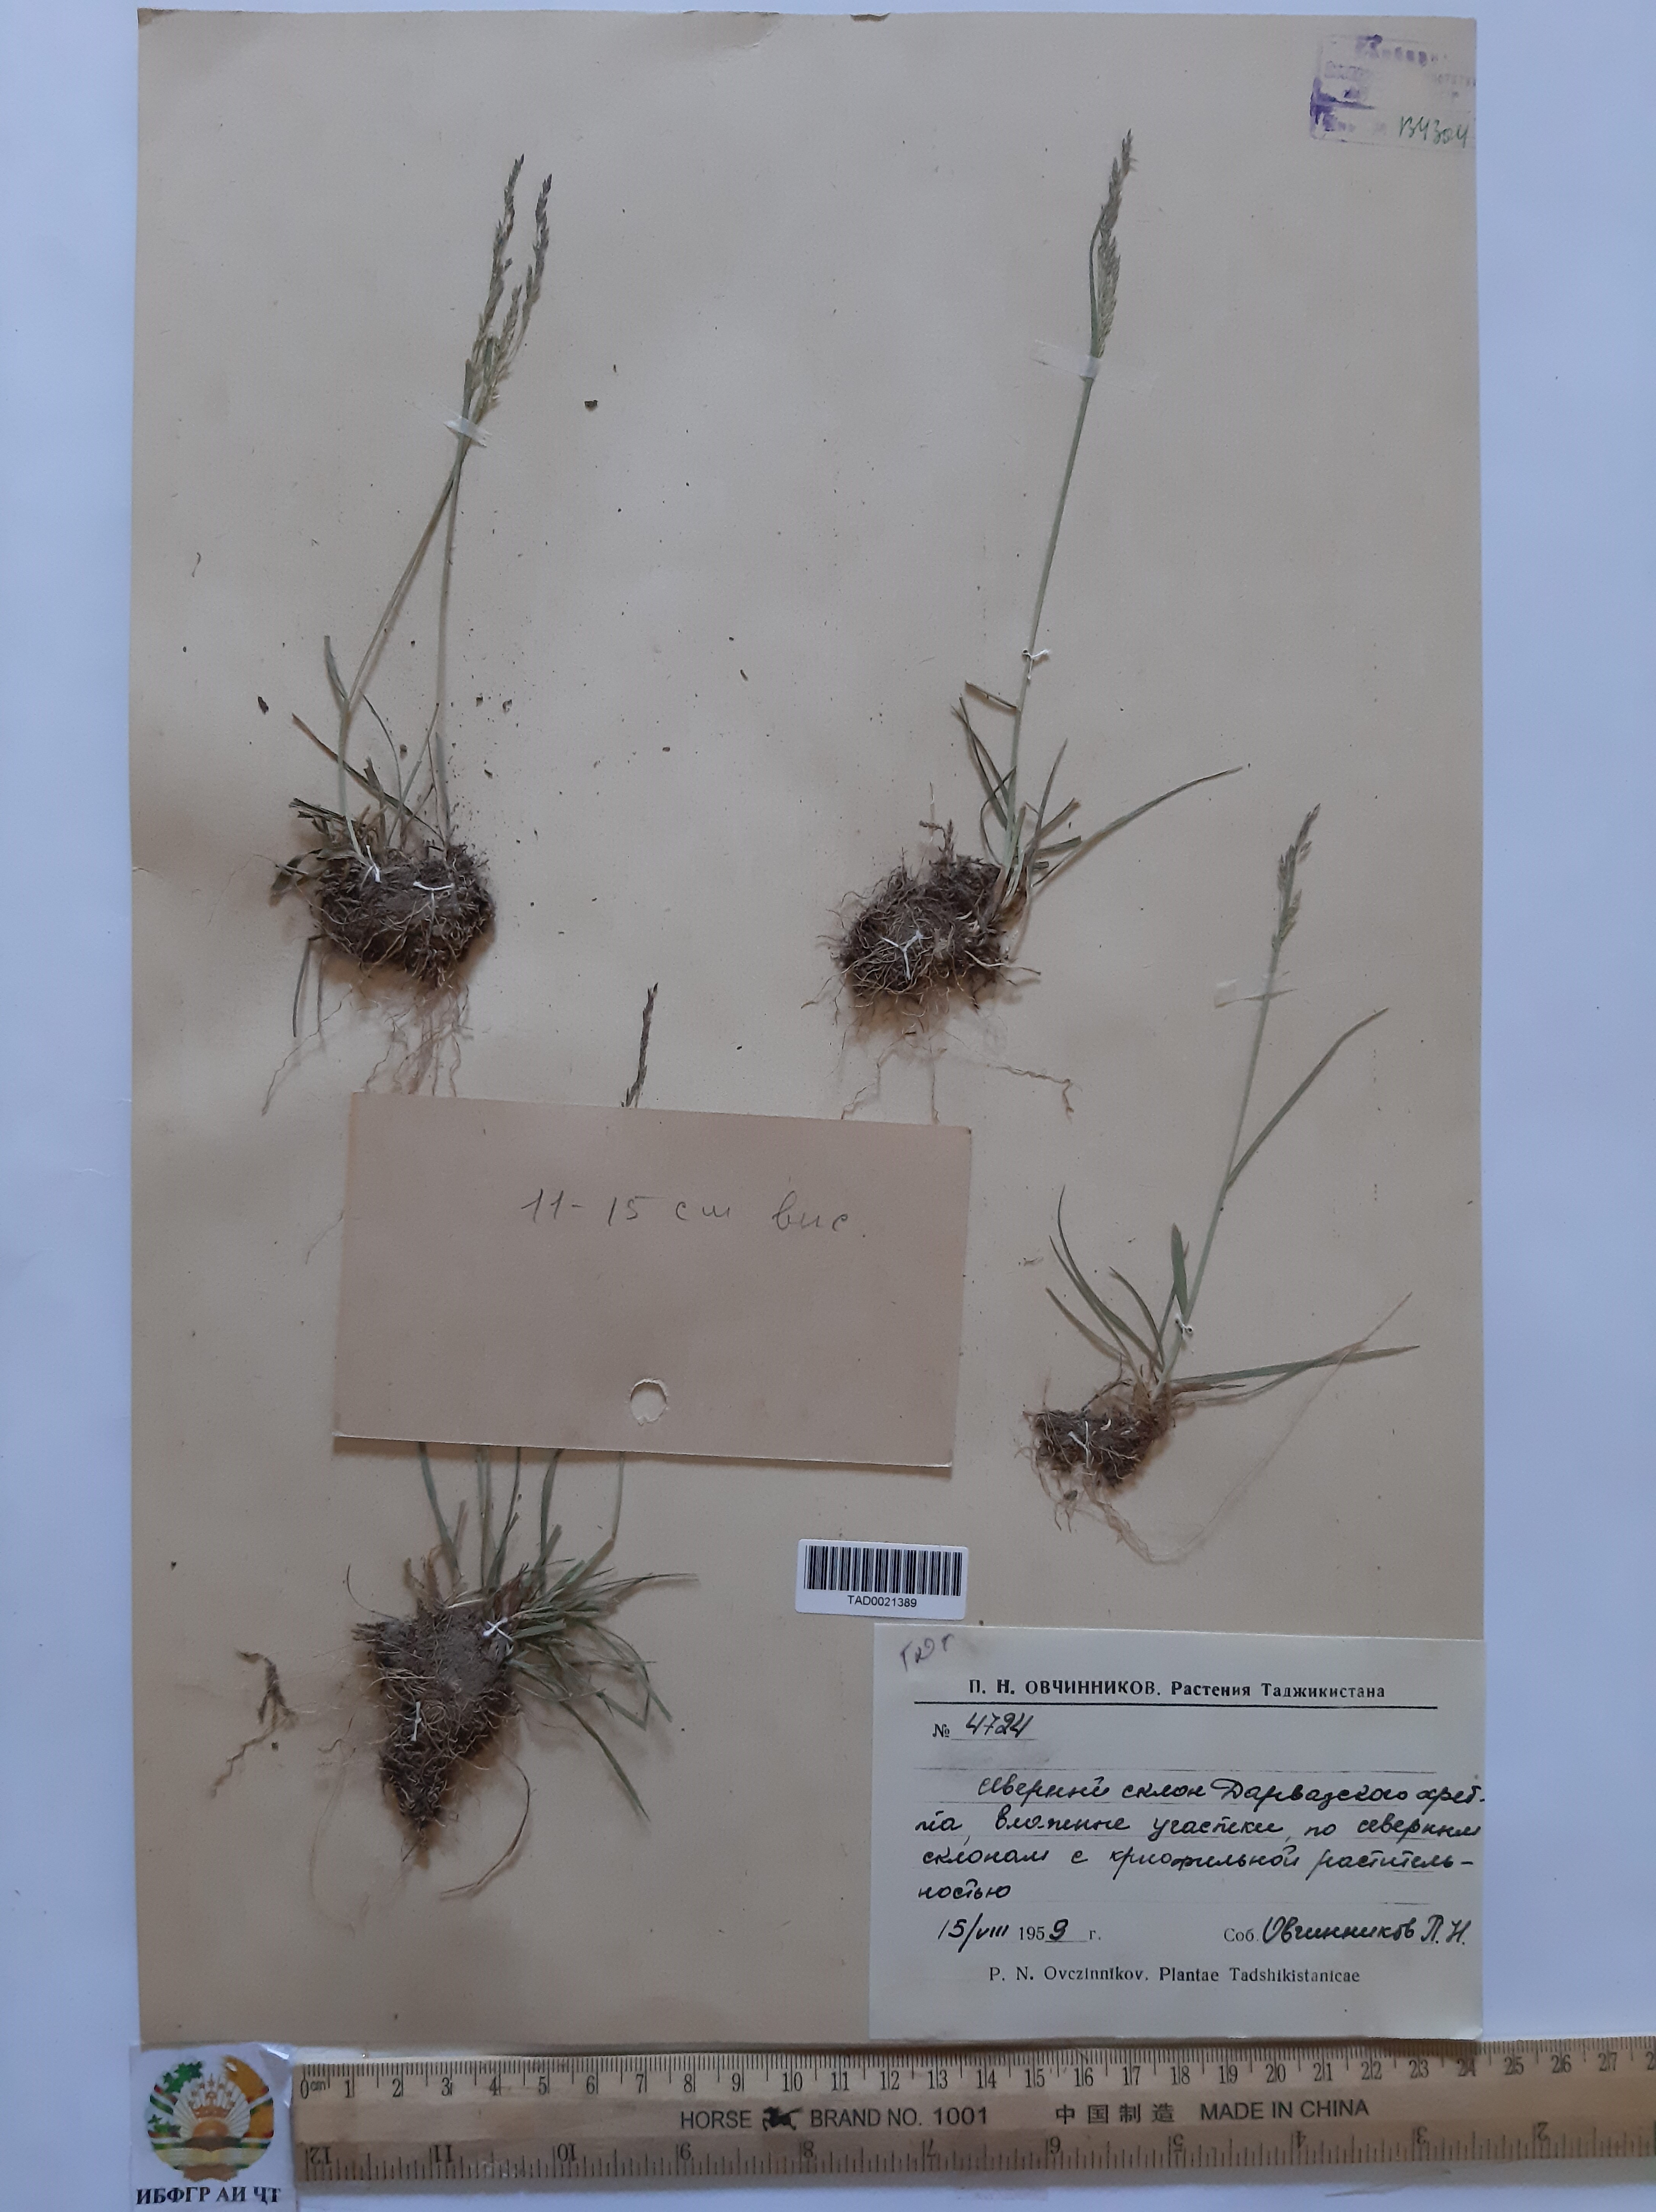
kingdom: Plantae
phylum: Tracheophyta
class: Liliopsida
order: Poales
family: Poaceae
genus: Poa
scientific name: Poa nemoralis
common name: Wood bluegrass
